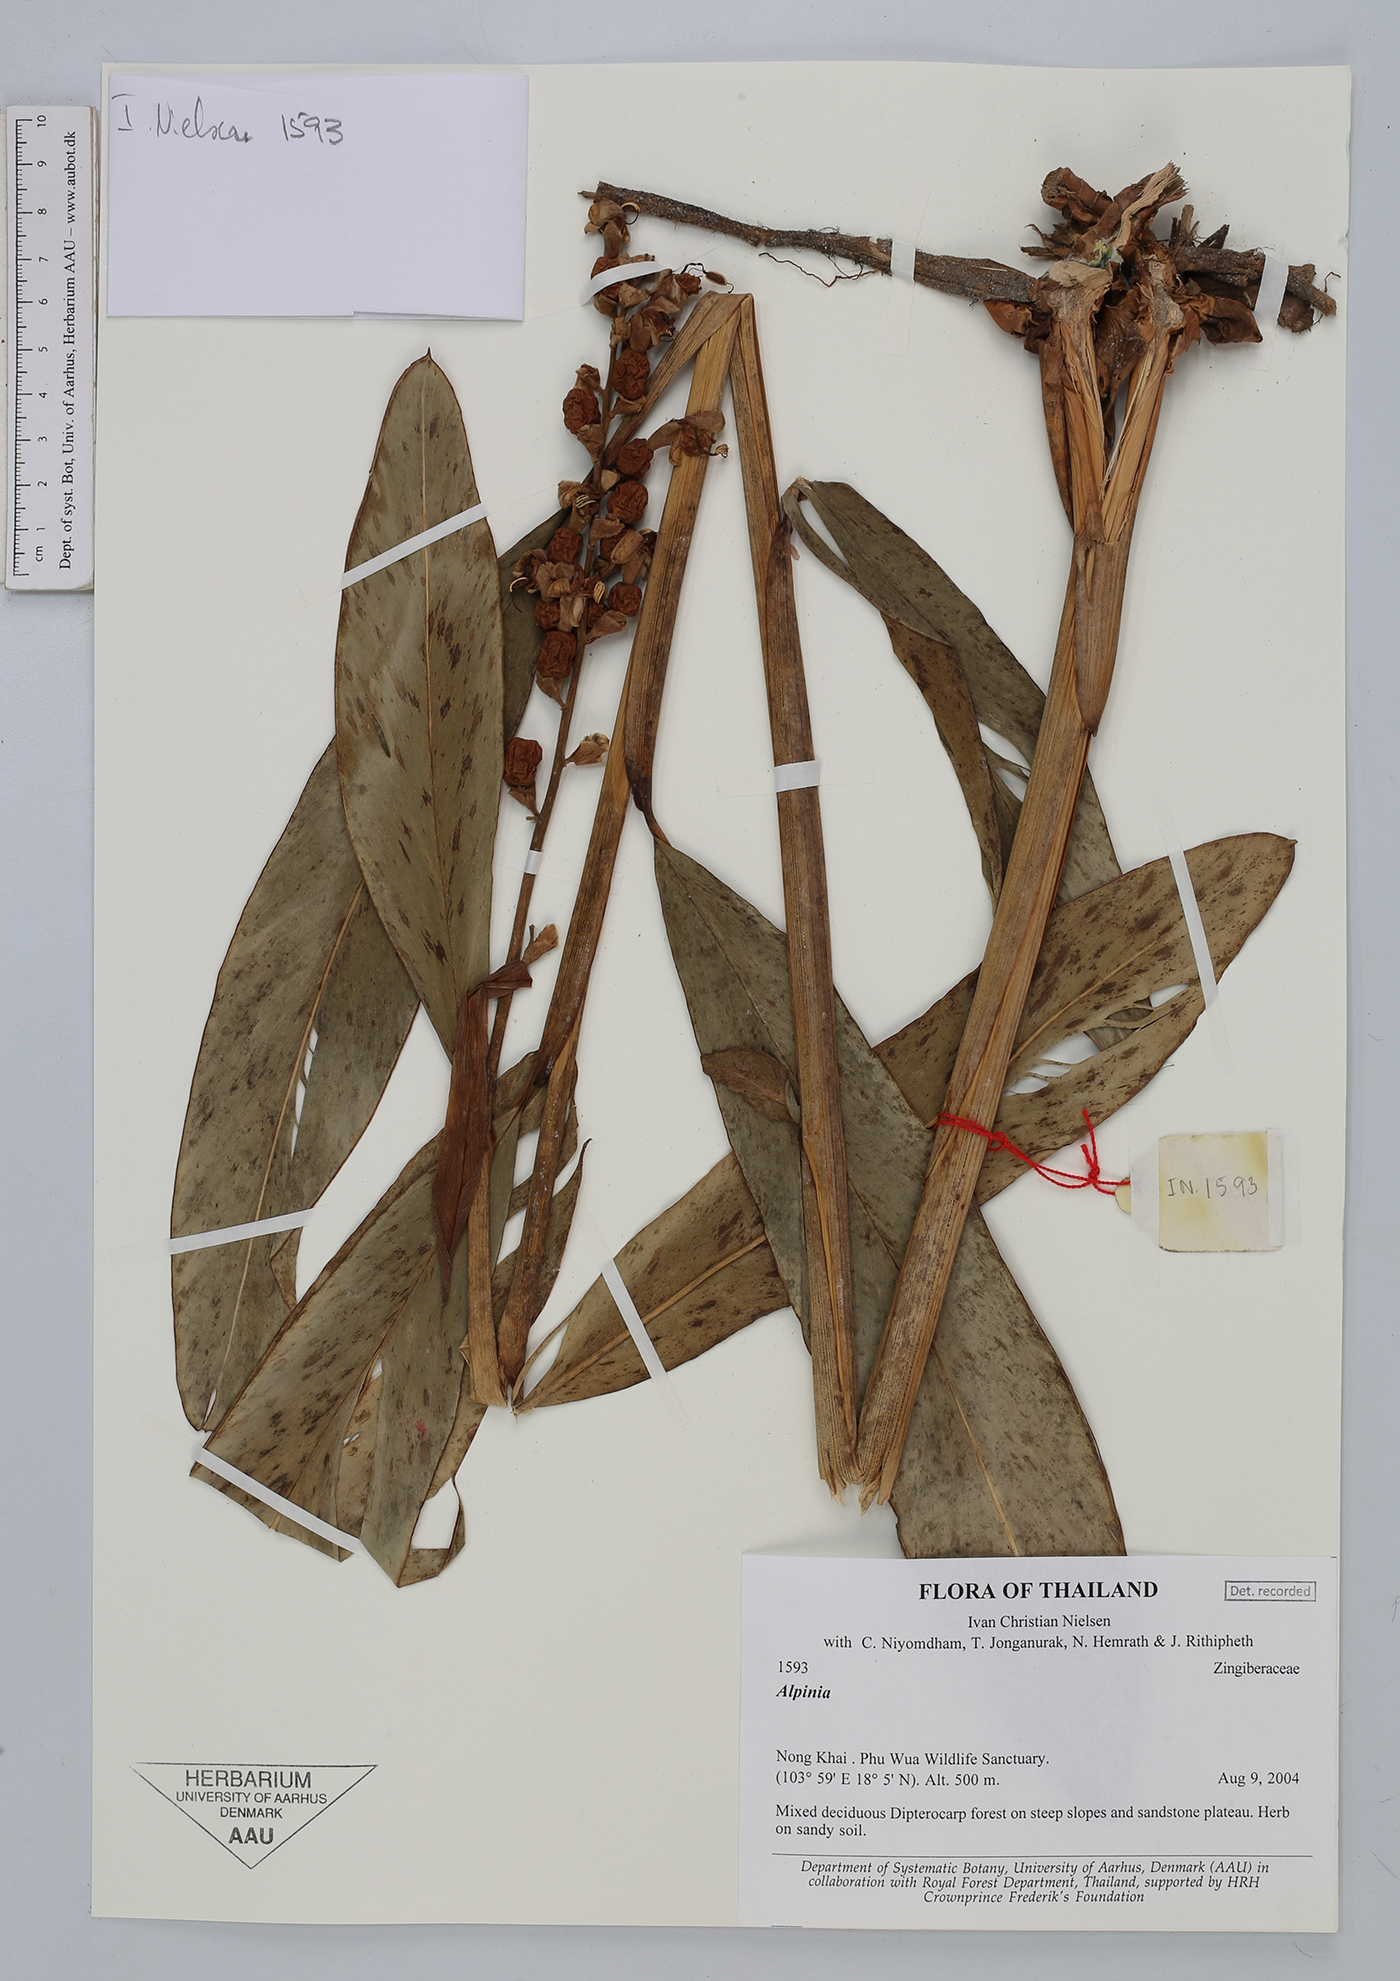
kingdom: Plantae
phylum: Tracheophyta
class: Liliopsida
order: Zingiberales
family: Zingiberaceae
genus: Alpinia
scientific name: Alpinia
